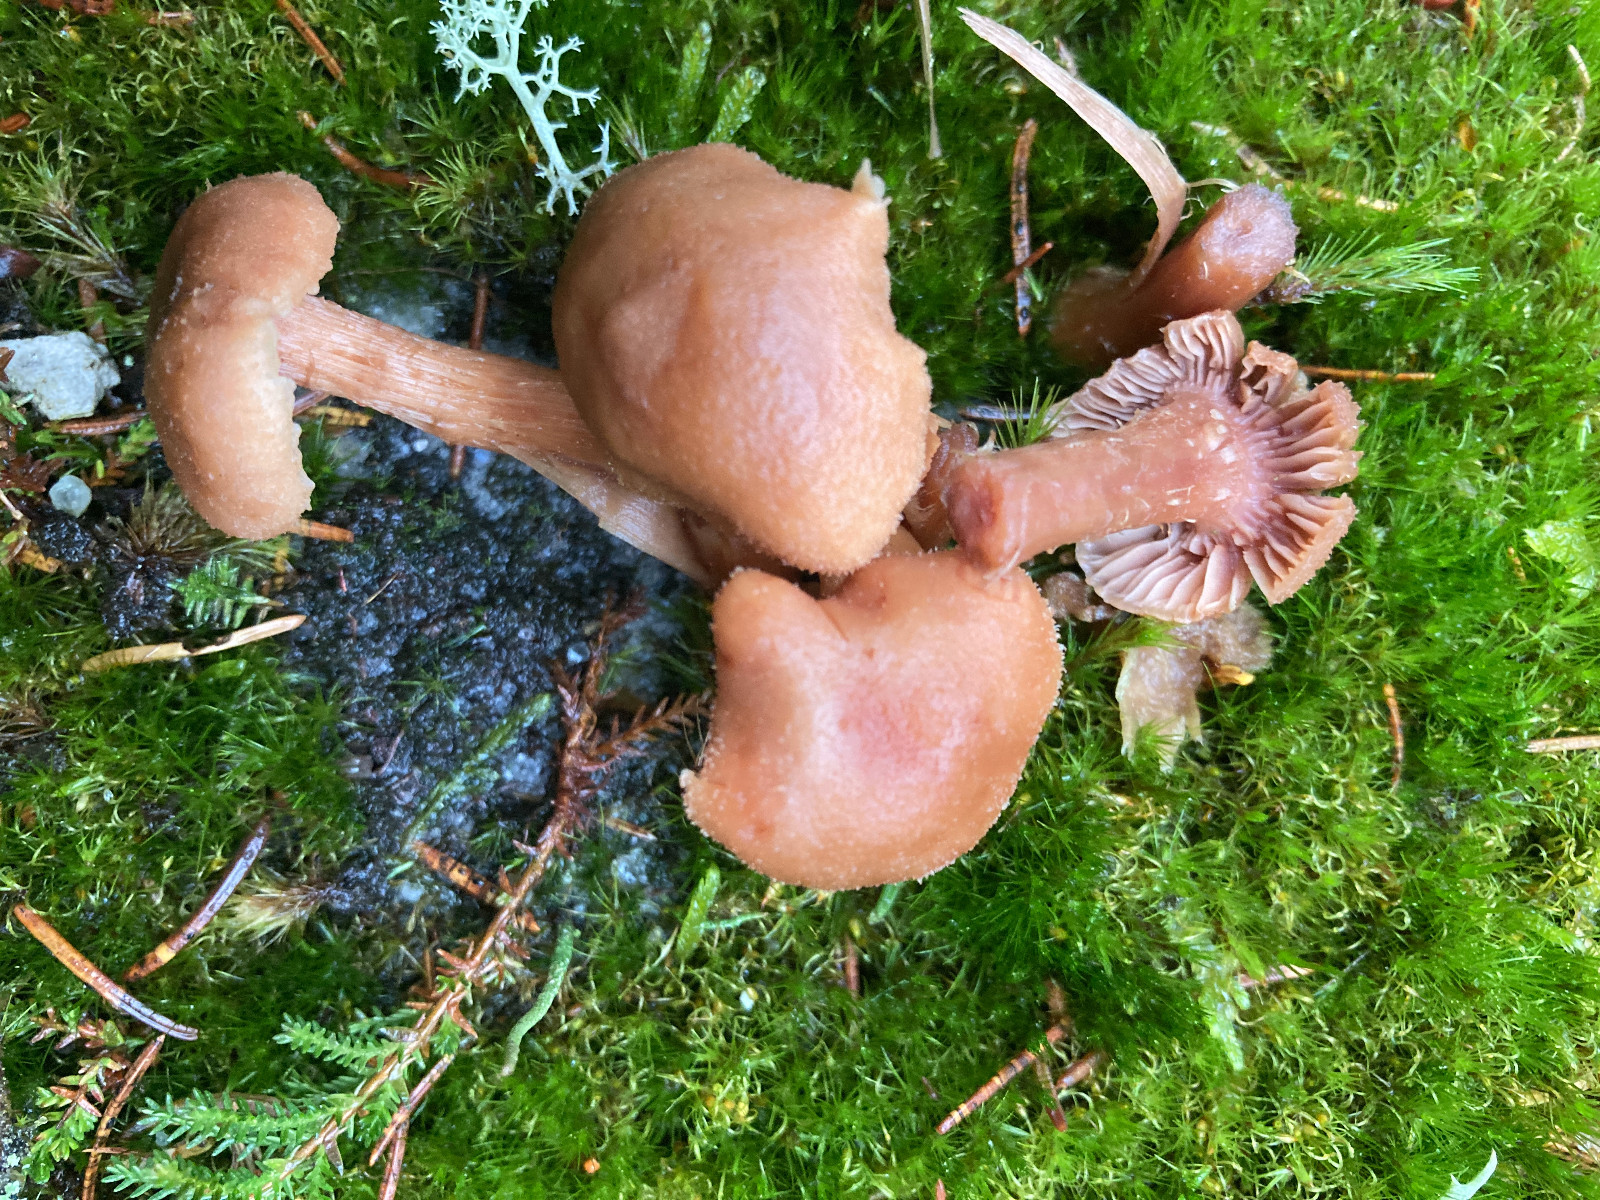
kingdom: Fungi
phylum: Basidiomycota
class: Agaricomycetes
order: Agaricales
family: Hydnangiaceae
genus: Laccaria
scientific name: Laccaria laccata
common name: rød ametysthat
